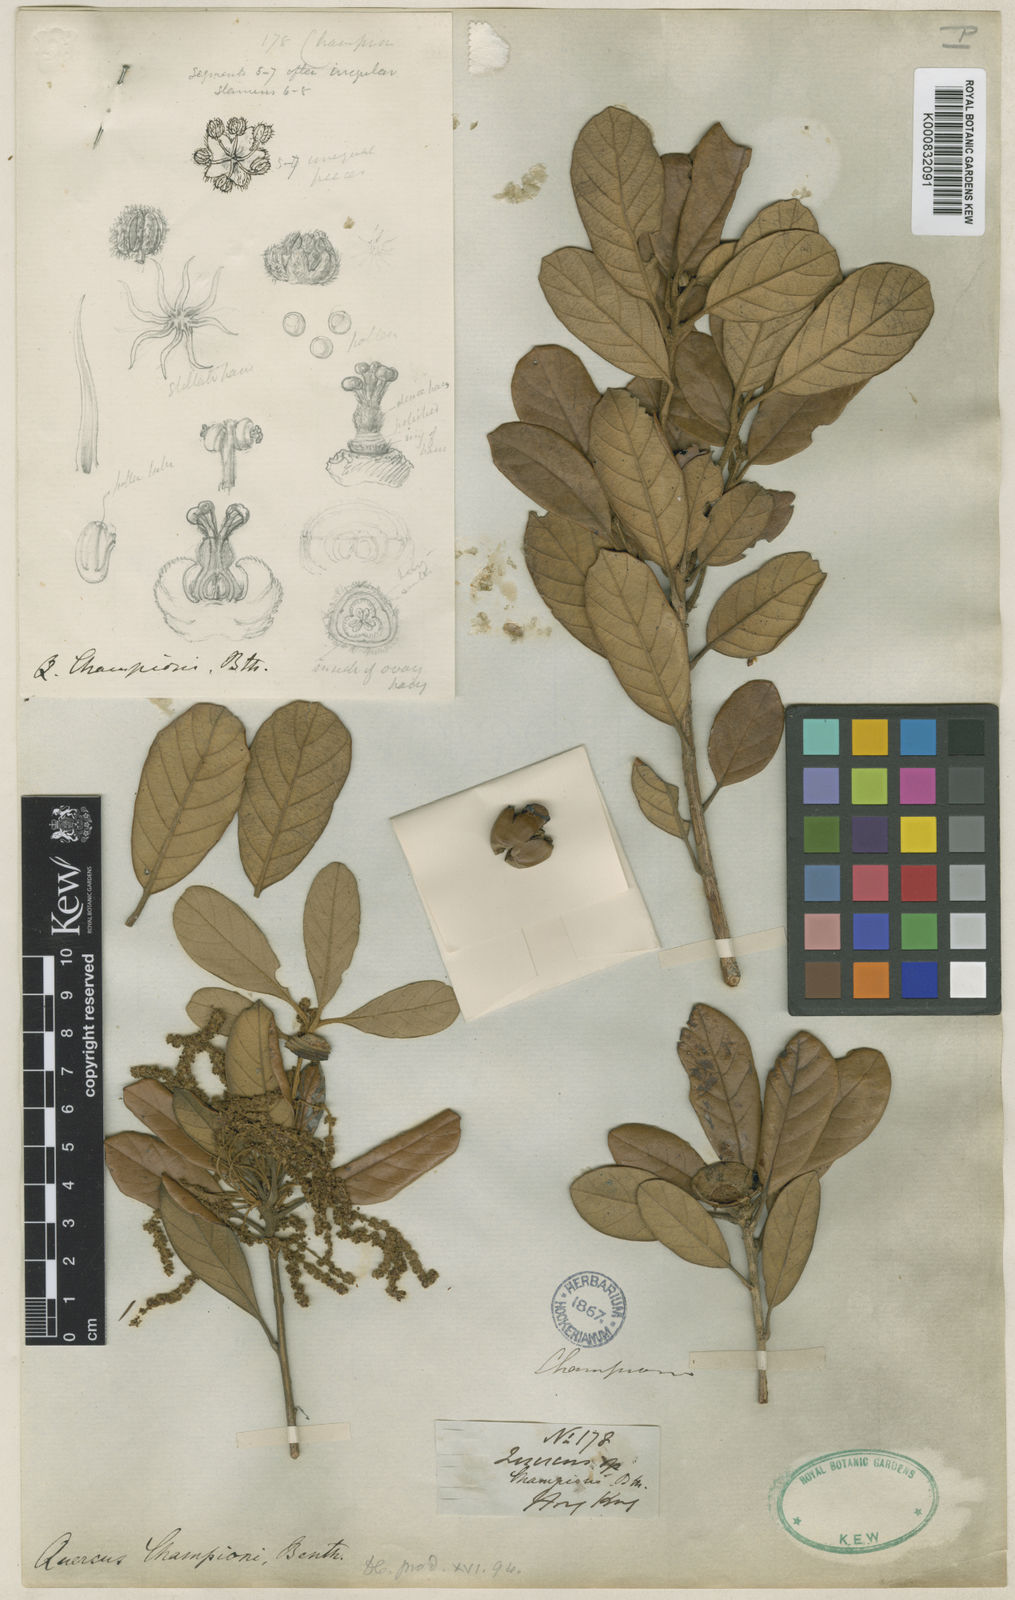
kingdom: Plantae
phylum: Tracheophyta
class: Magnoliopsida
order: Fagales
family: Fagaceae
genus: Quercus
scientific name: Quercus championii
